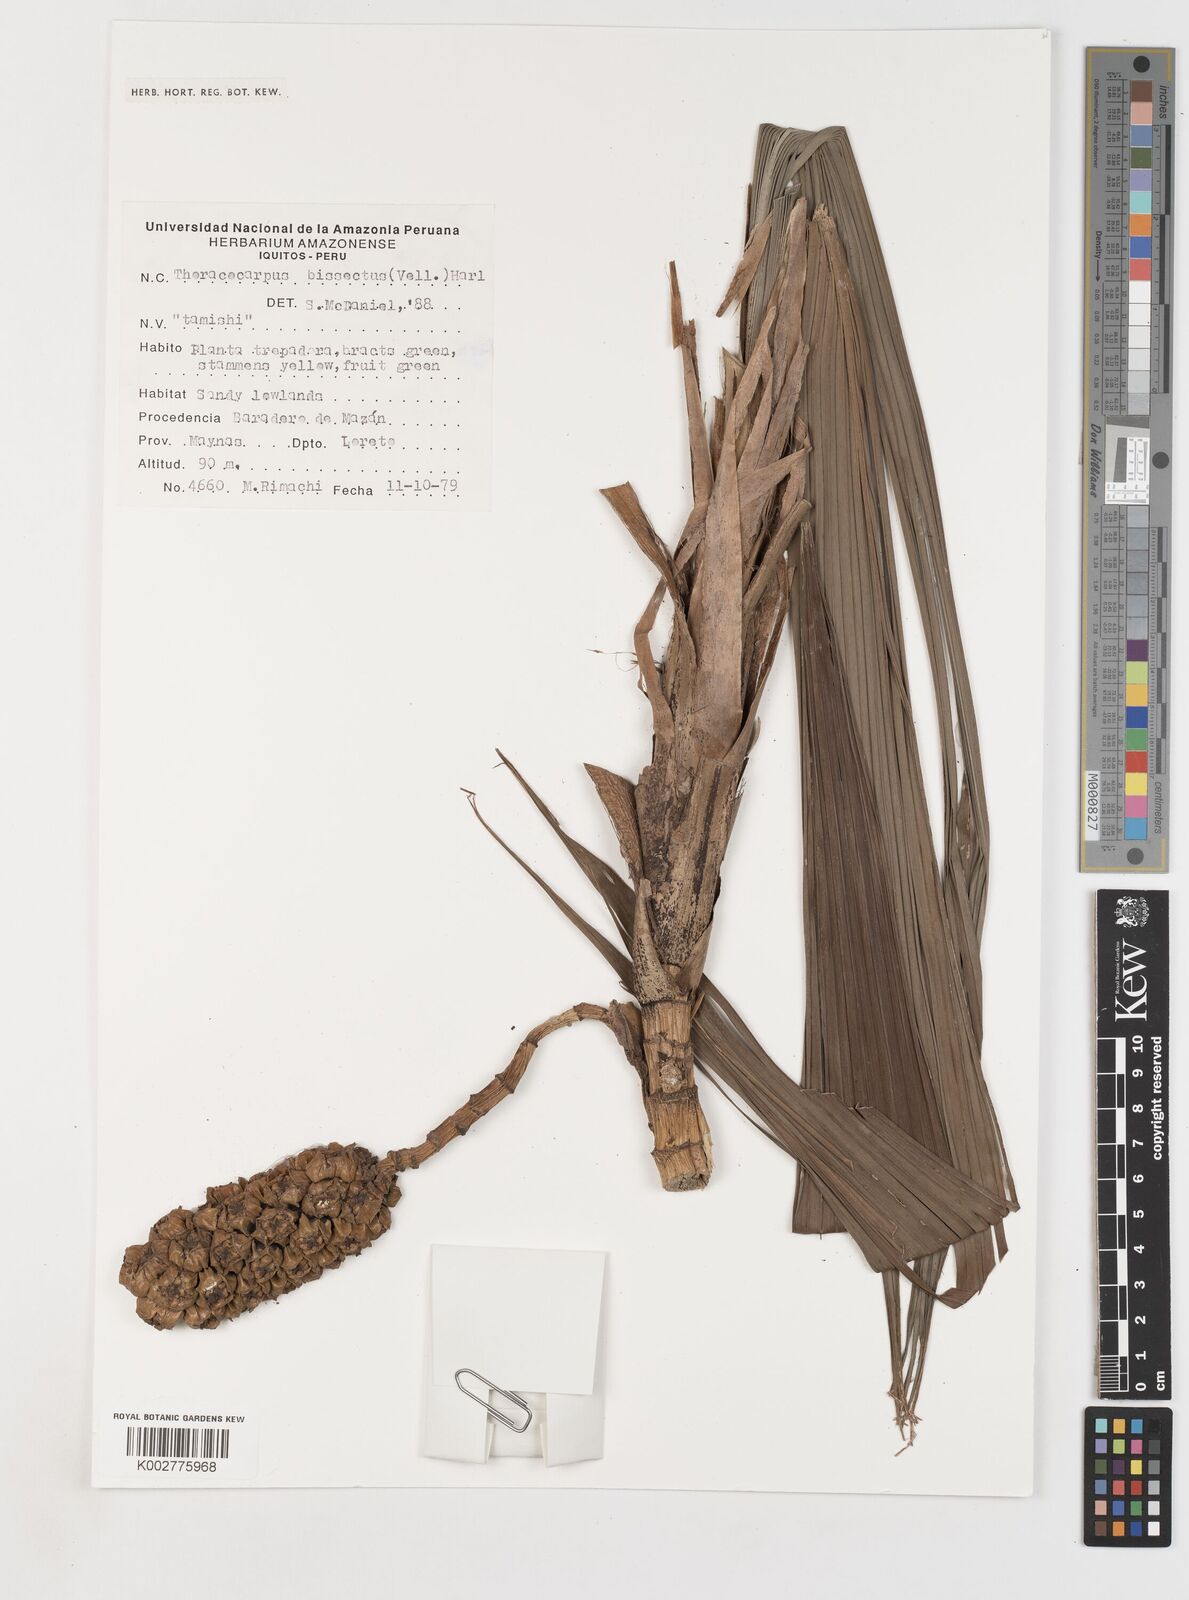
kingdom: Plantae
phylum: Tracheophyta
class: Liliopsida
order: Pandanales
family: Cyclanthaceae
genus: Thoracocarpus
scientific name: Thoracocarpus bissectus
